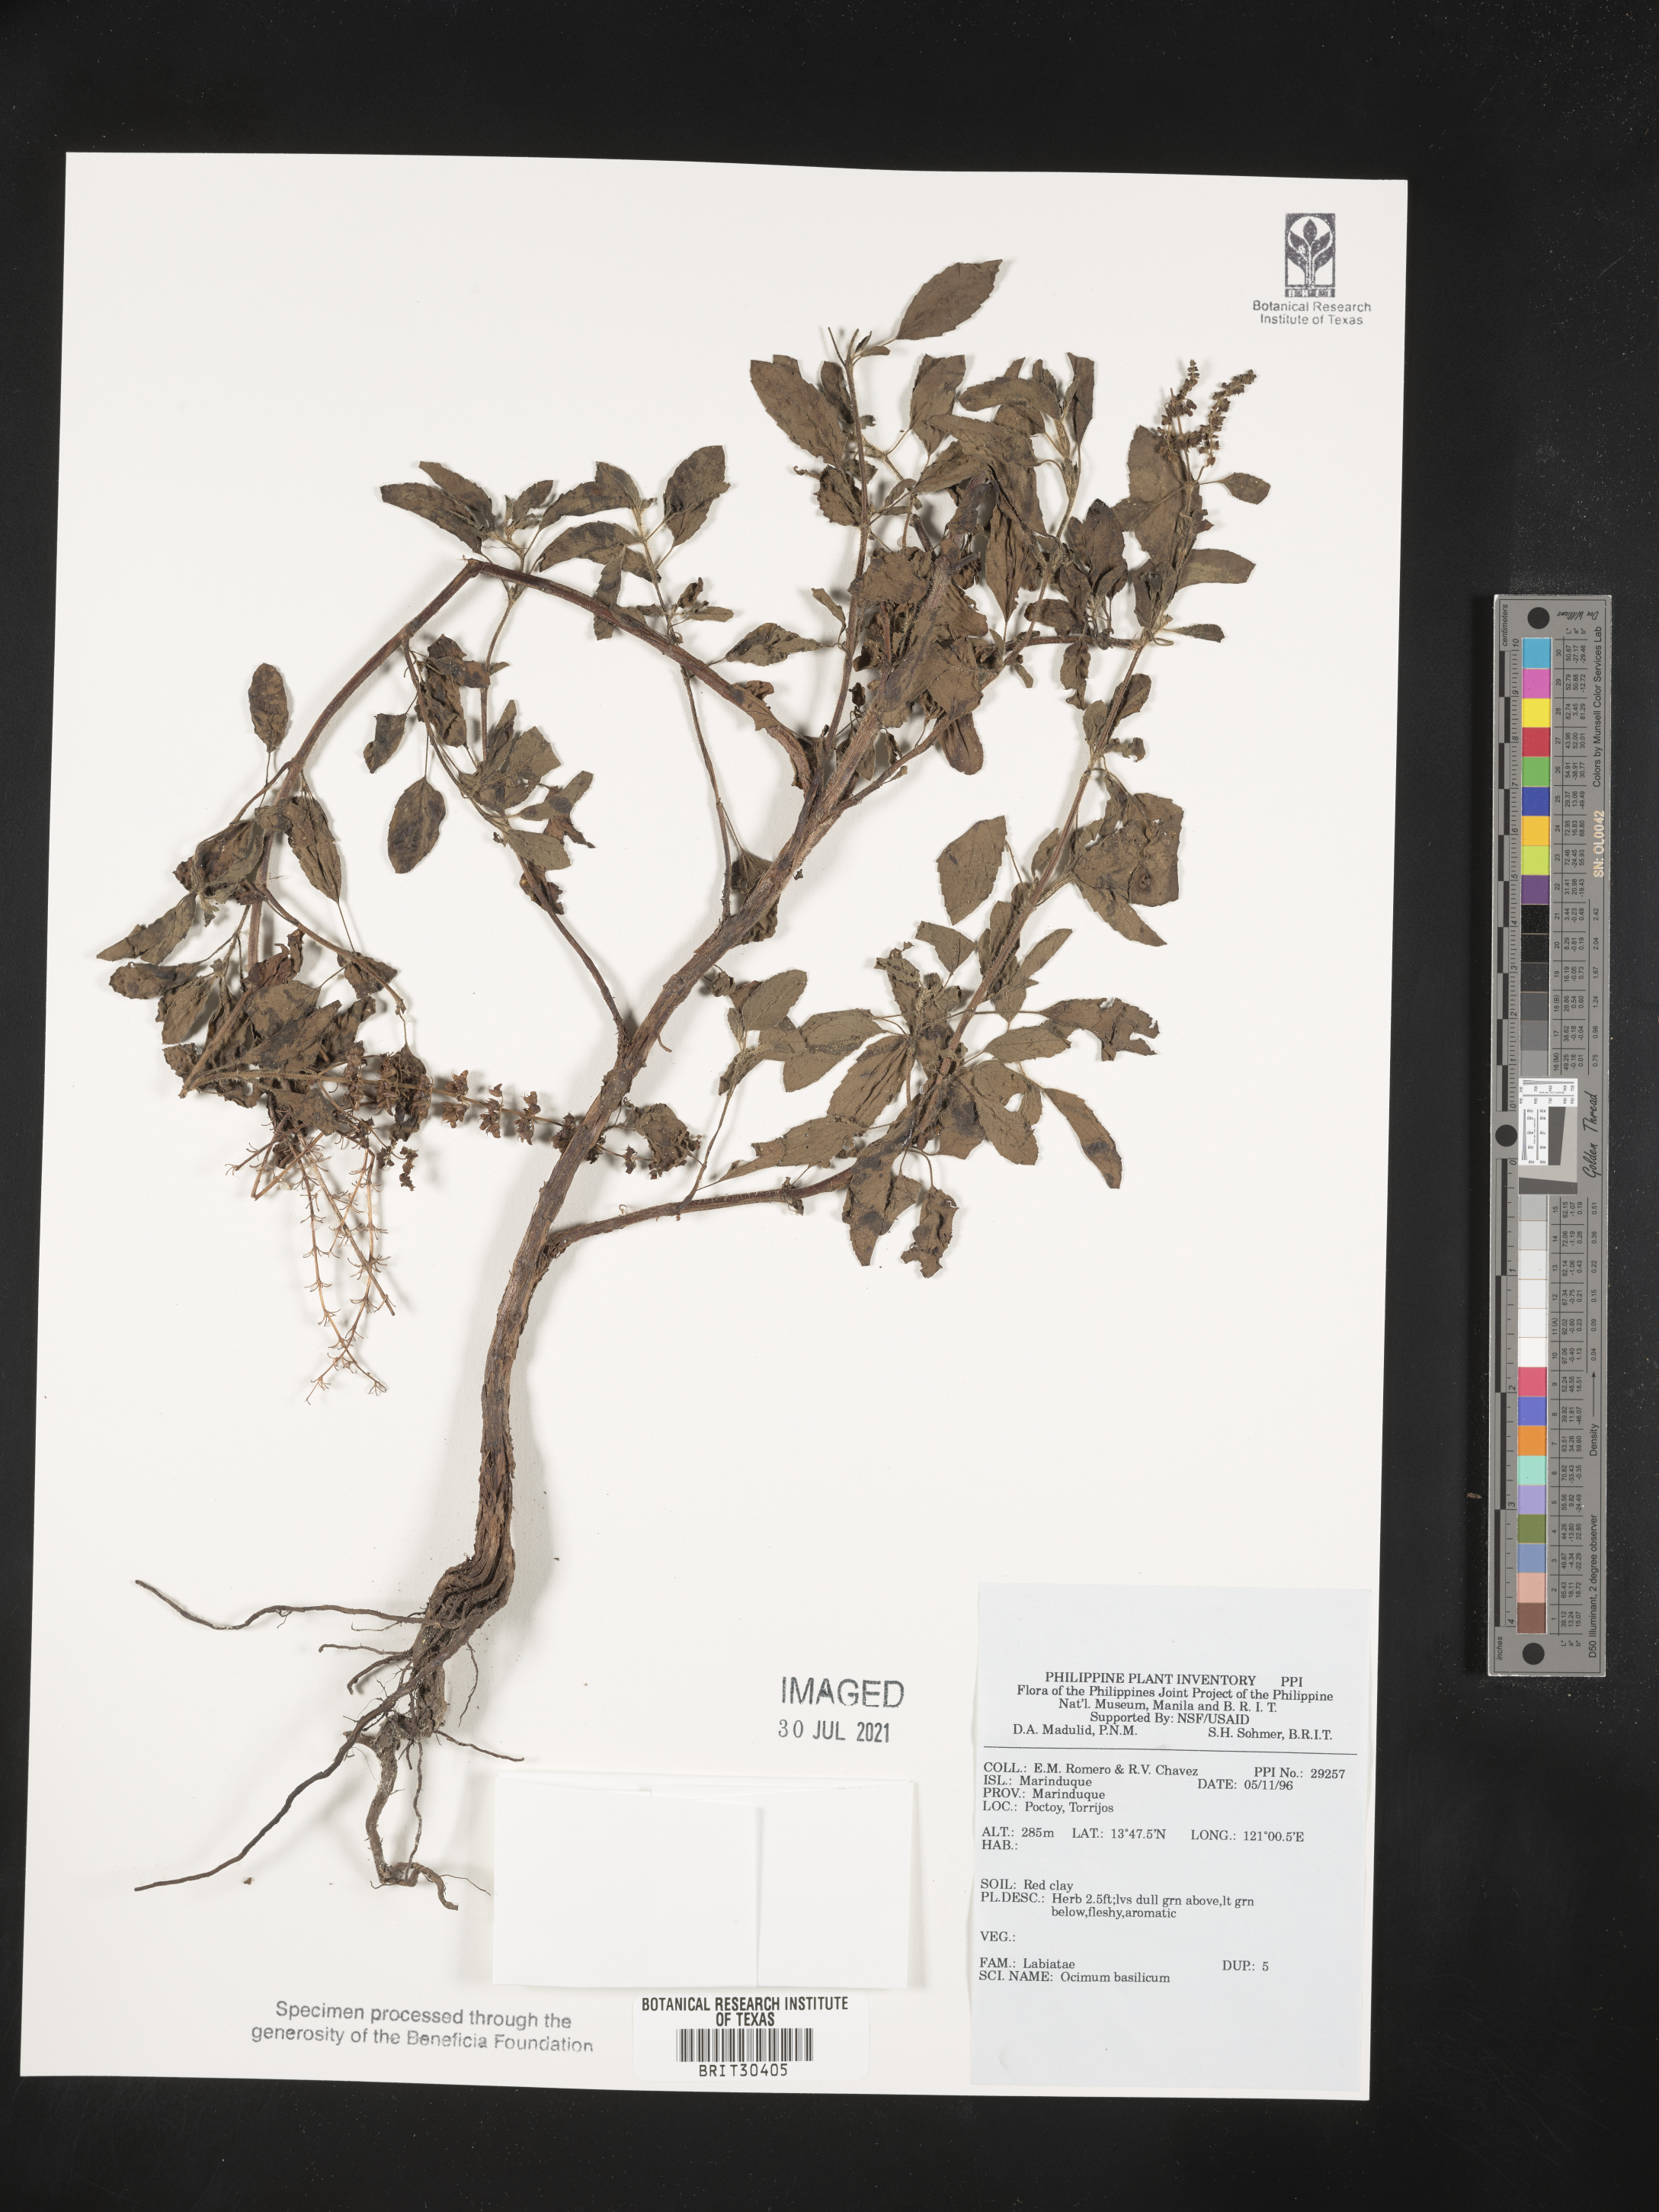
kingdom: Plantae
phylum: Tracheophyta
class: Magnoliopsida
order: Lamiales
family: Lamiaceae
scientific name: Lamiaceae
